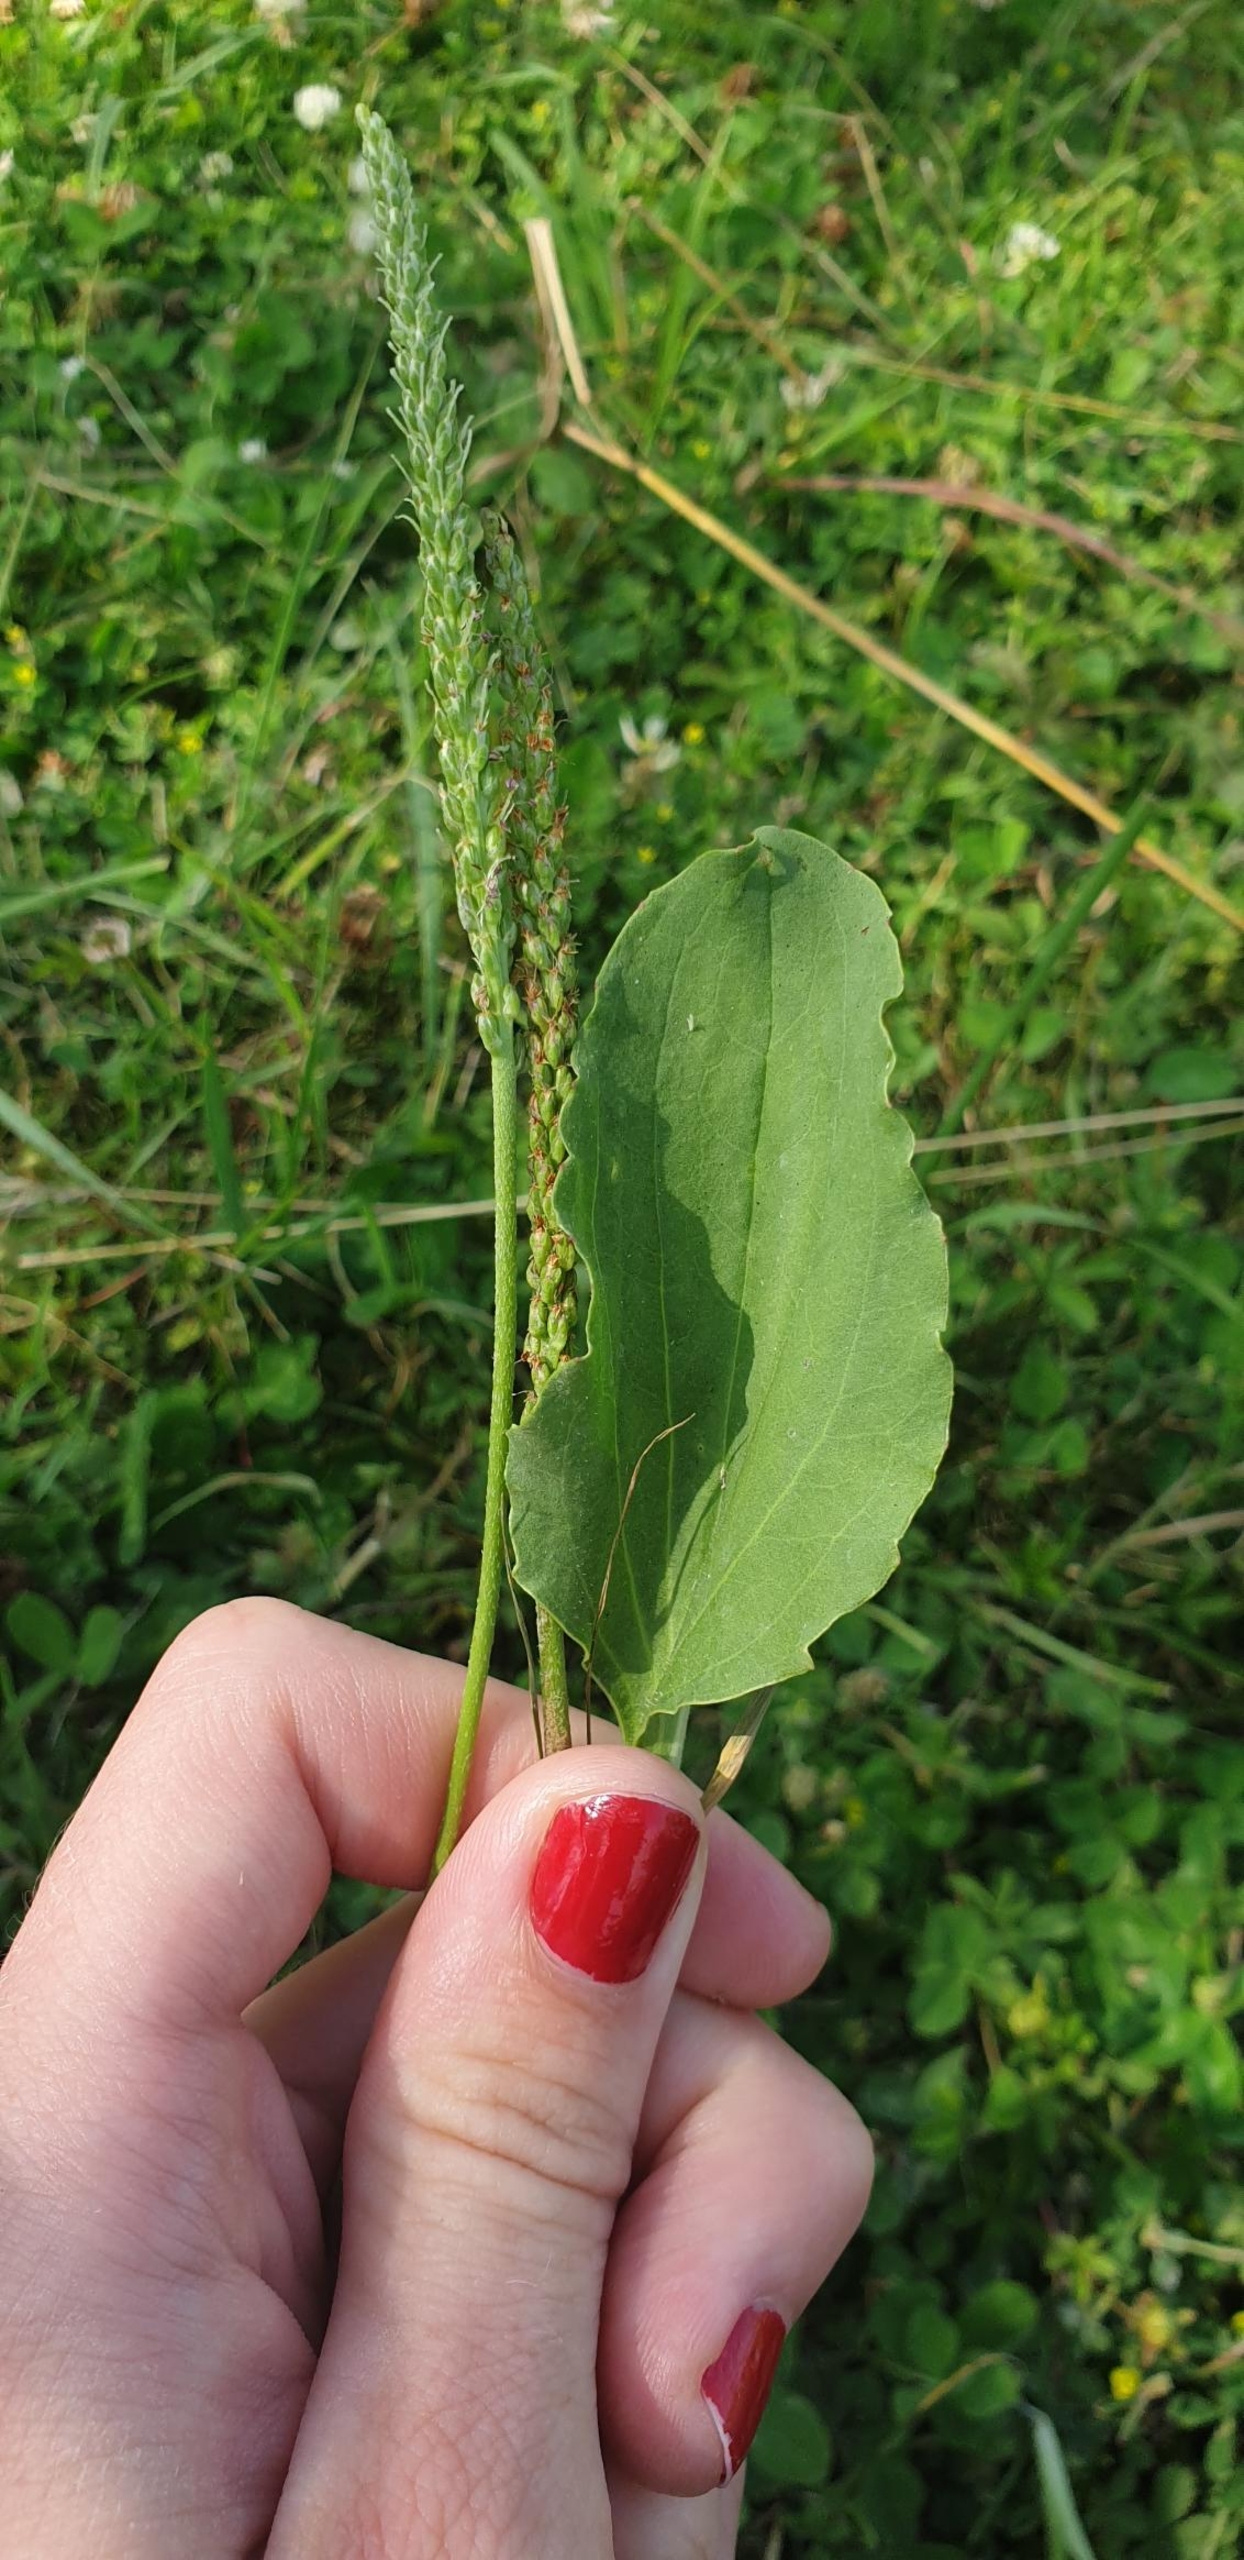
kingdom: Plantae
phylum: Tracheophyta
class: Magnoliopsida
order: Lamiales
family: Plantaginaceae
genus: Plantago
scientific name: Plantago major
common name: Glat vejbred (underart)
